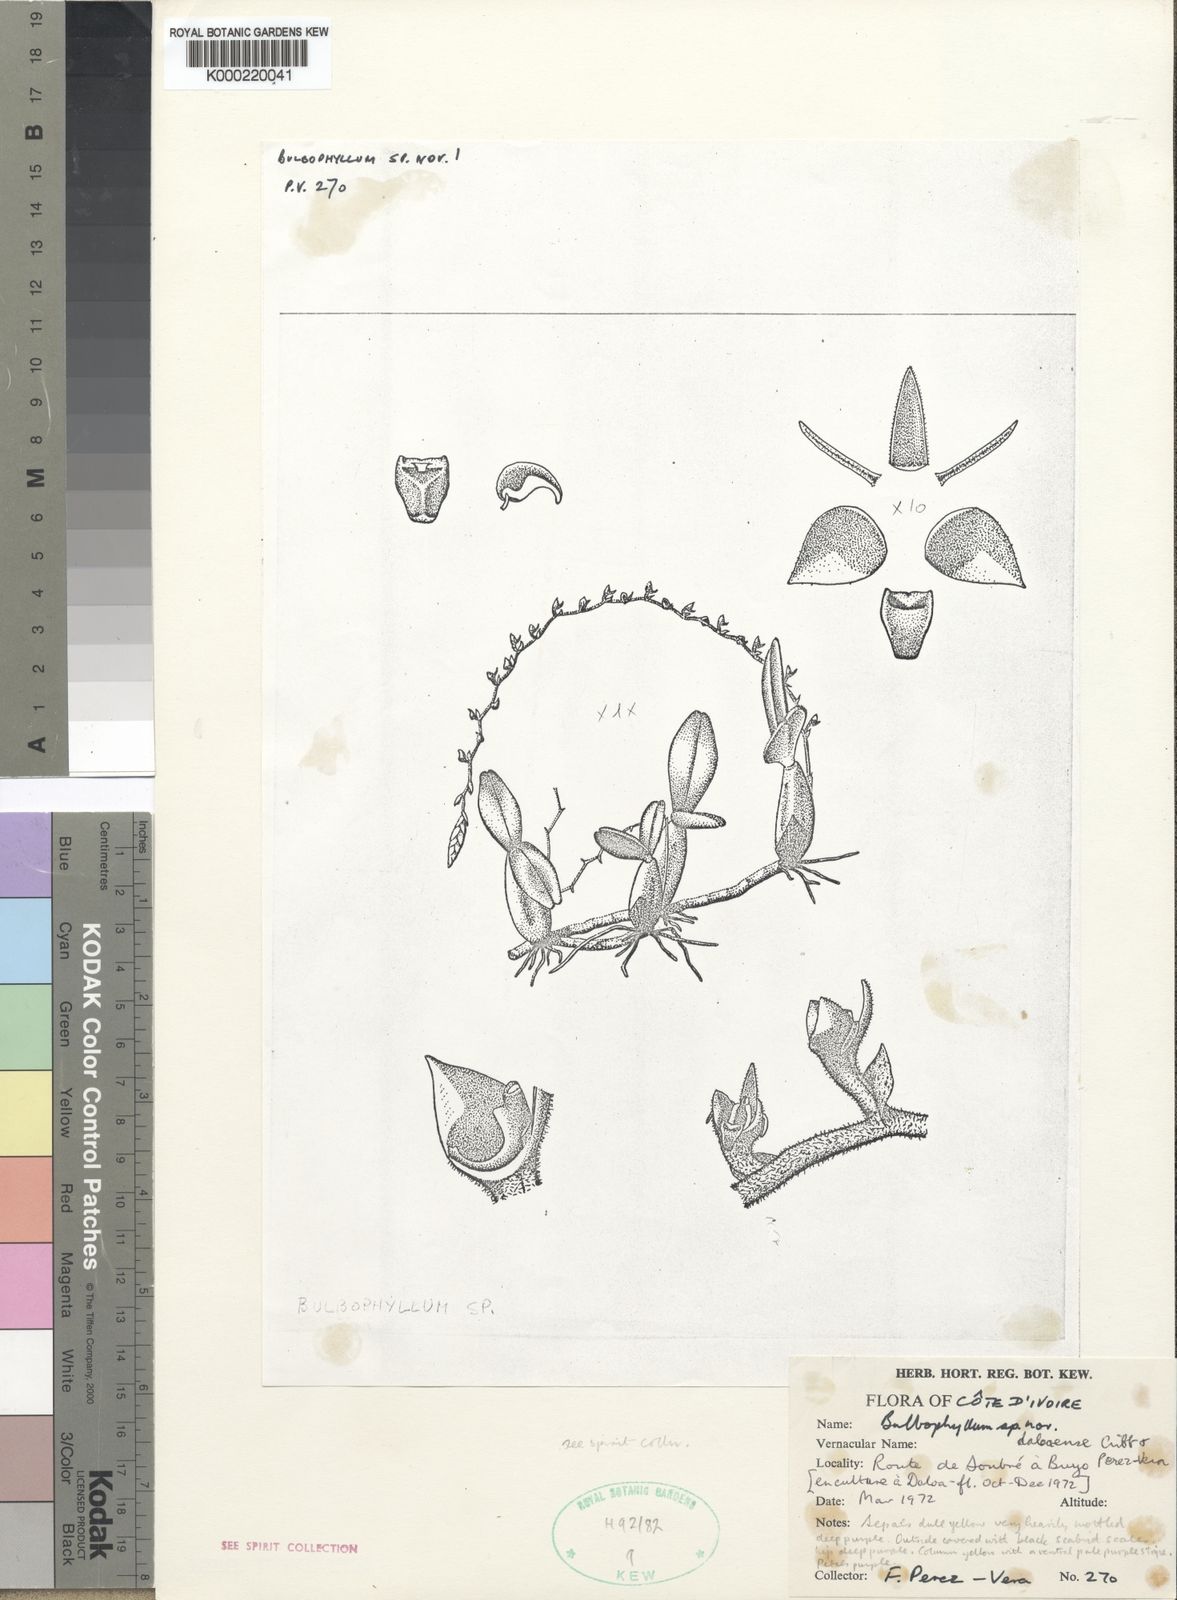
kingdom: Plantae
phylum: Tracheophyta
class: Liliopsida
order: Asparagales
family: Orchidaceae
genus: Bulbophyllum
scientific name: Bulbophyllum resupinatum
